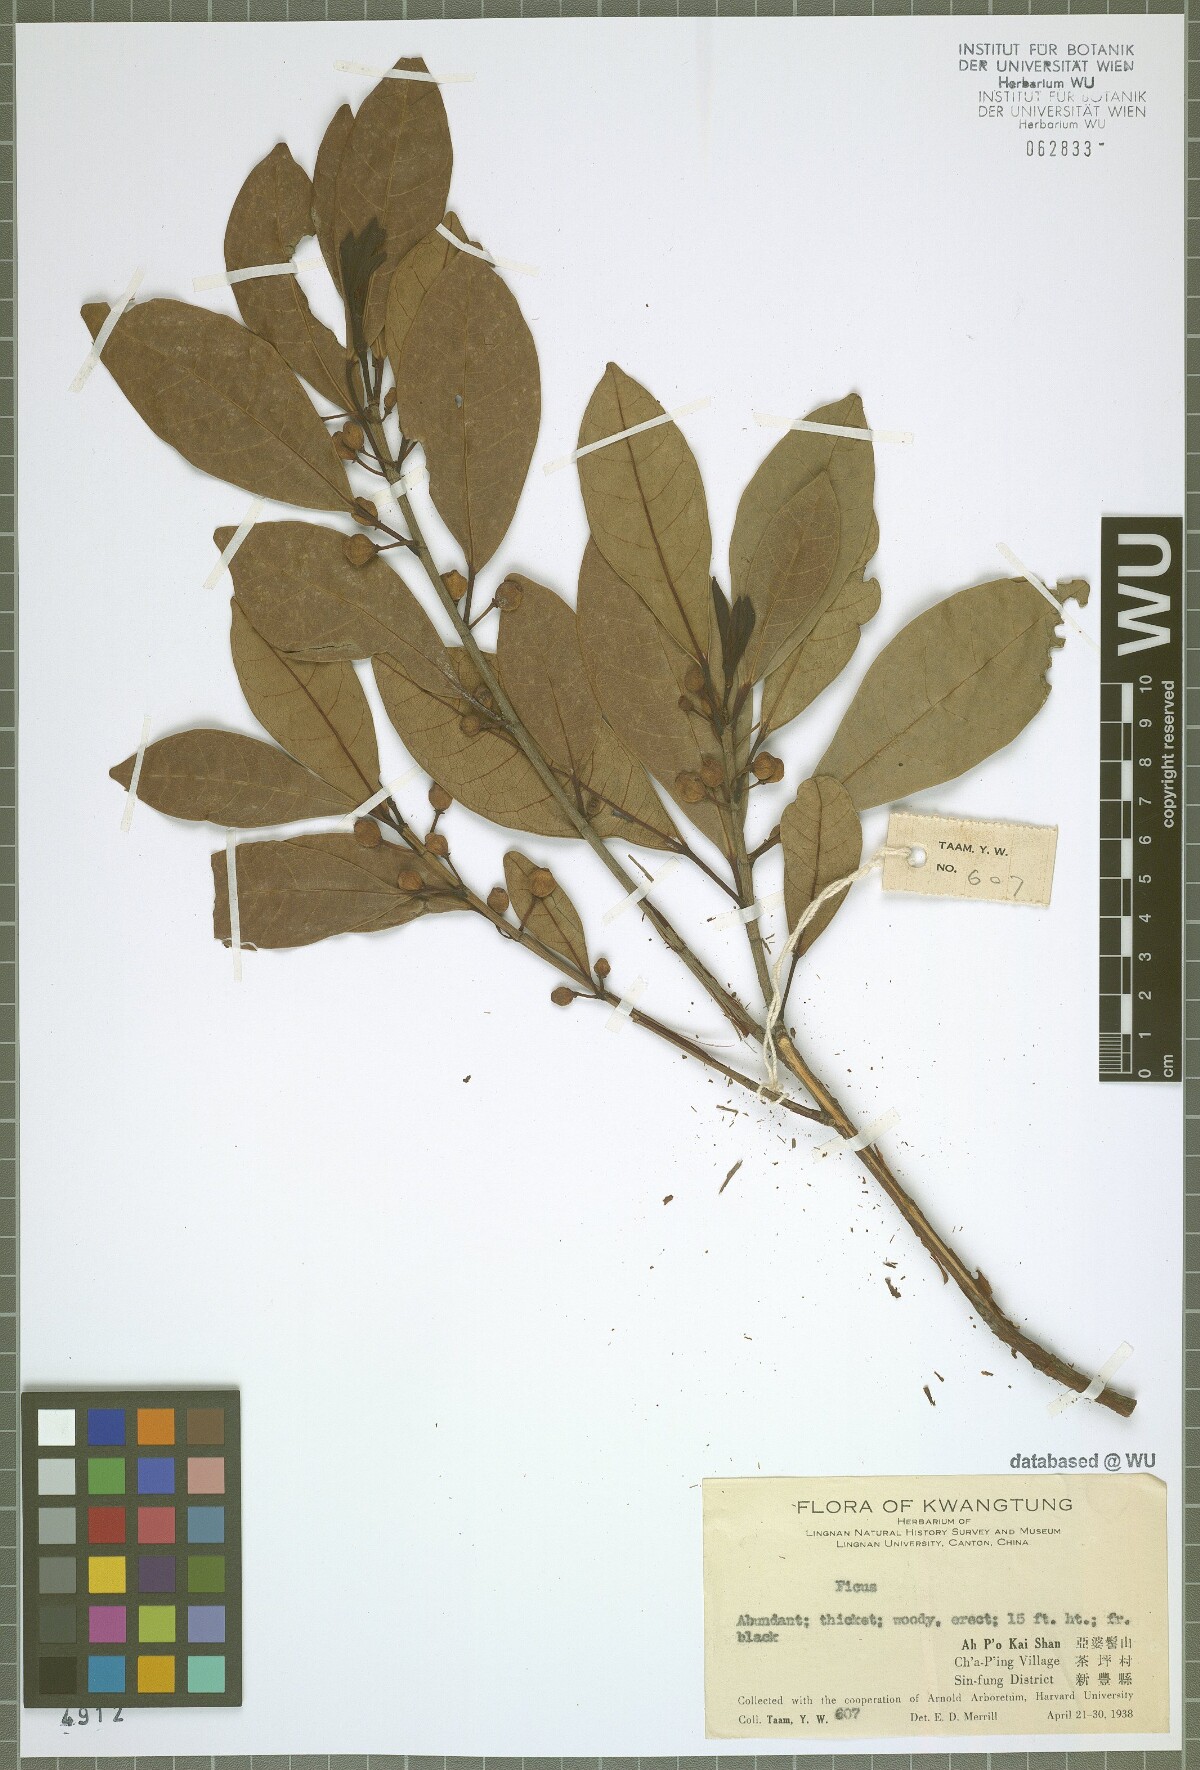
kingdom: Plantae
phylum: Tracheophyta
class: Magnoliopsida
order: Rosales
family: Moraceae
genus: Ficus
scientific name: Ficus
